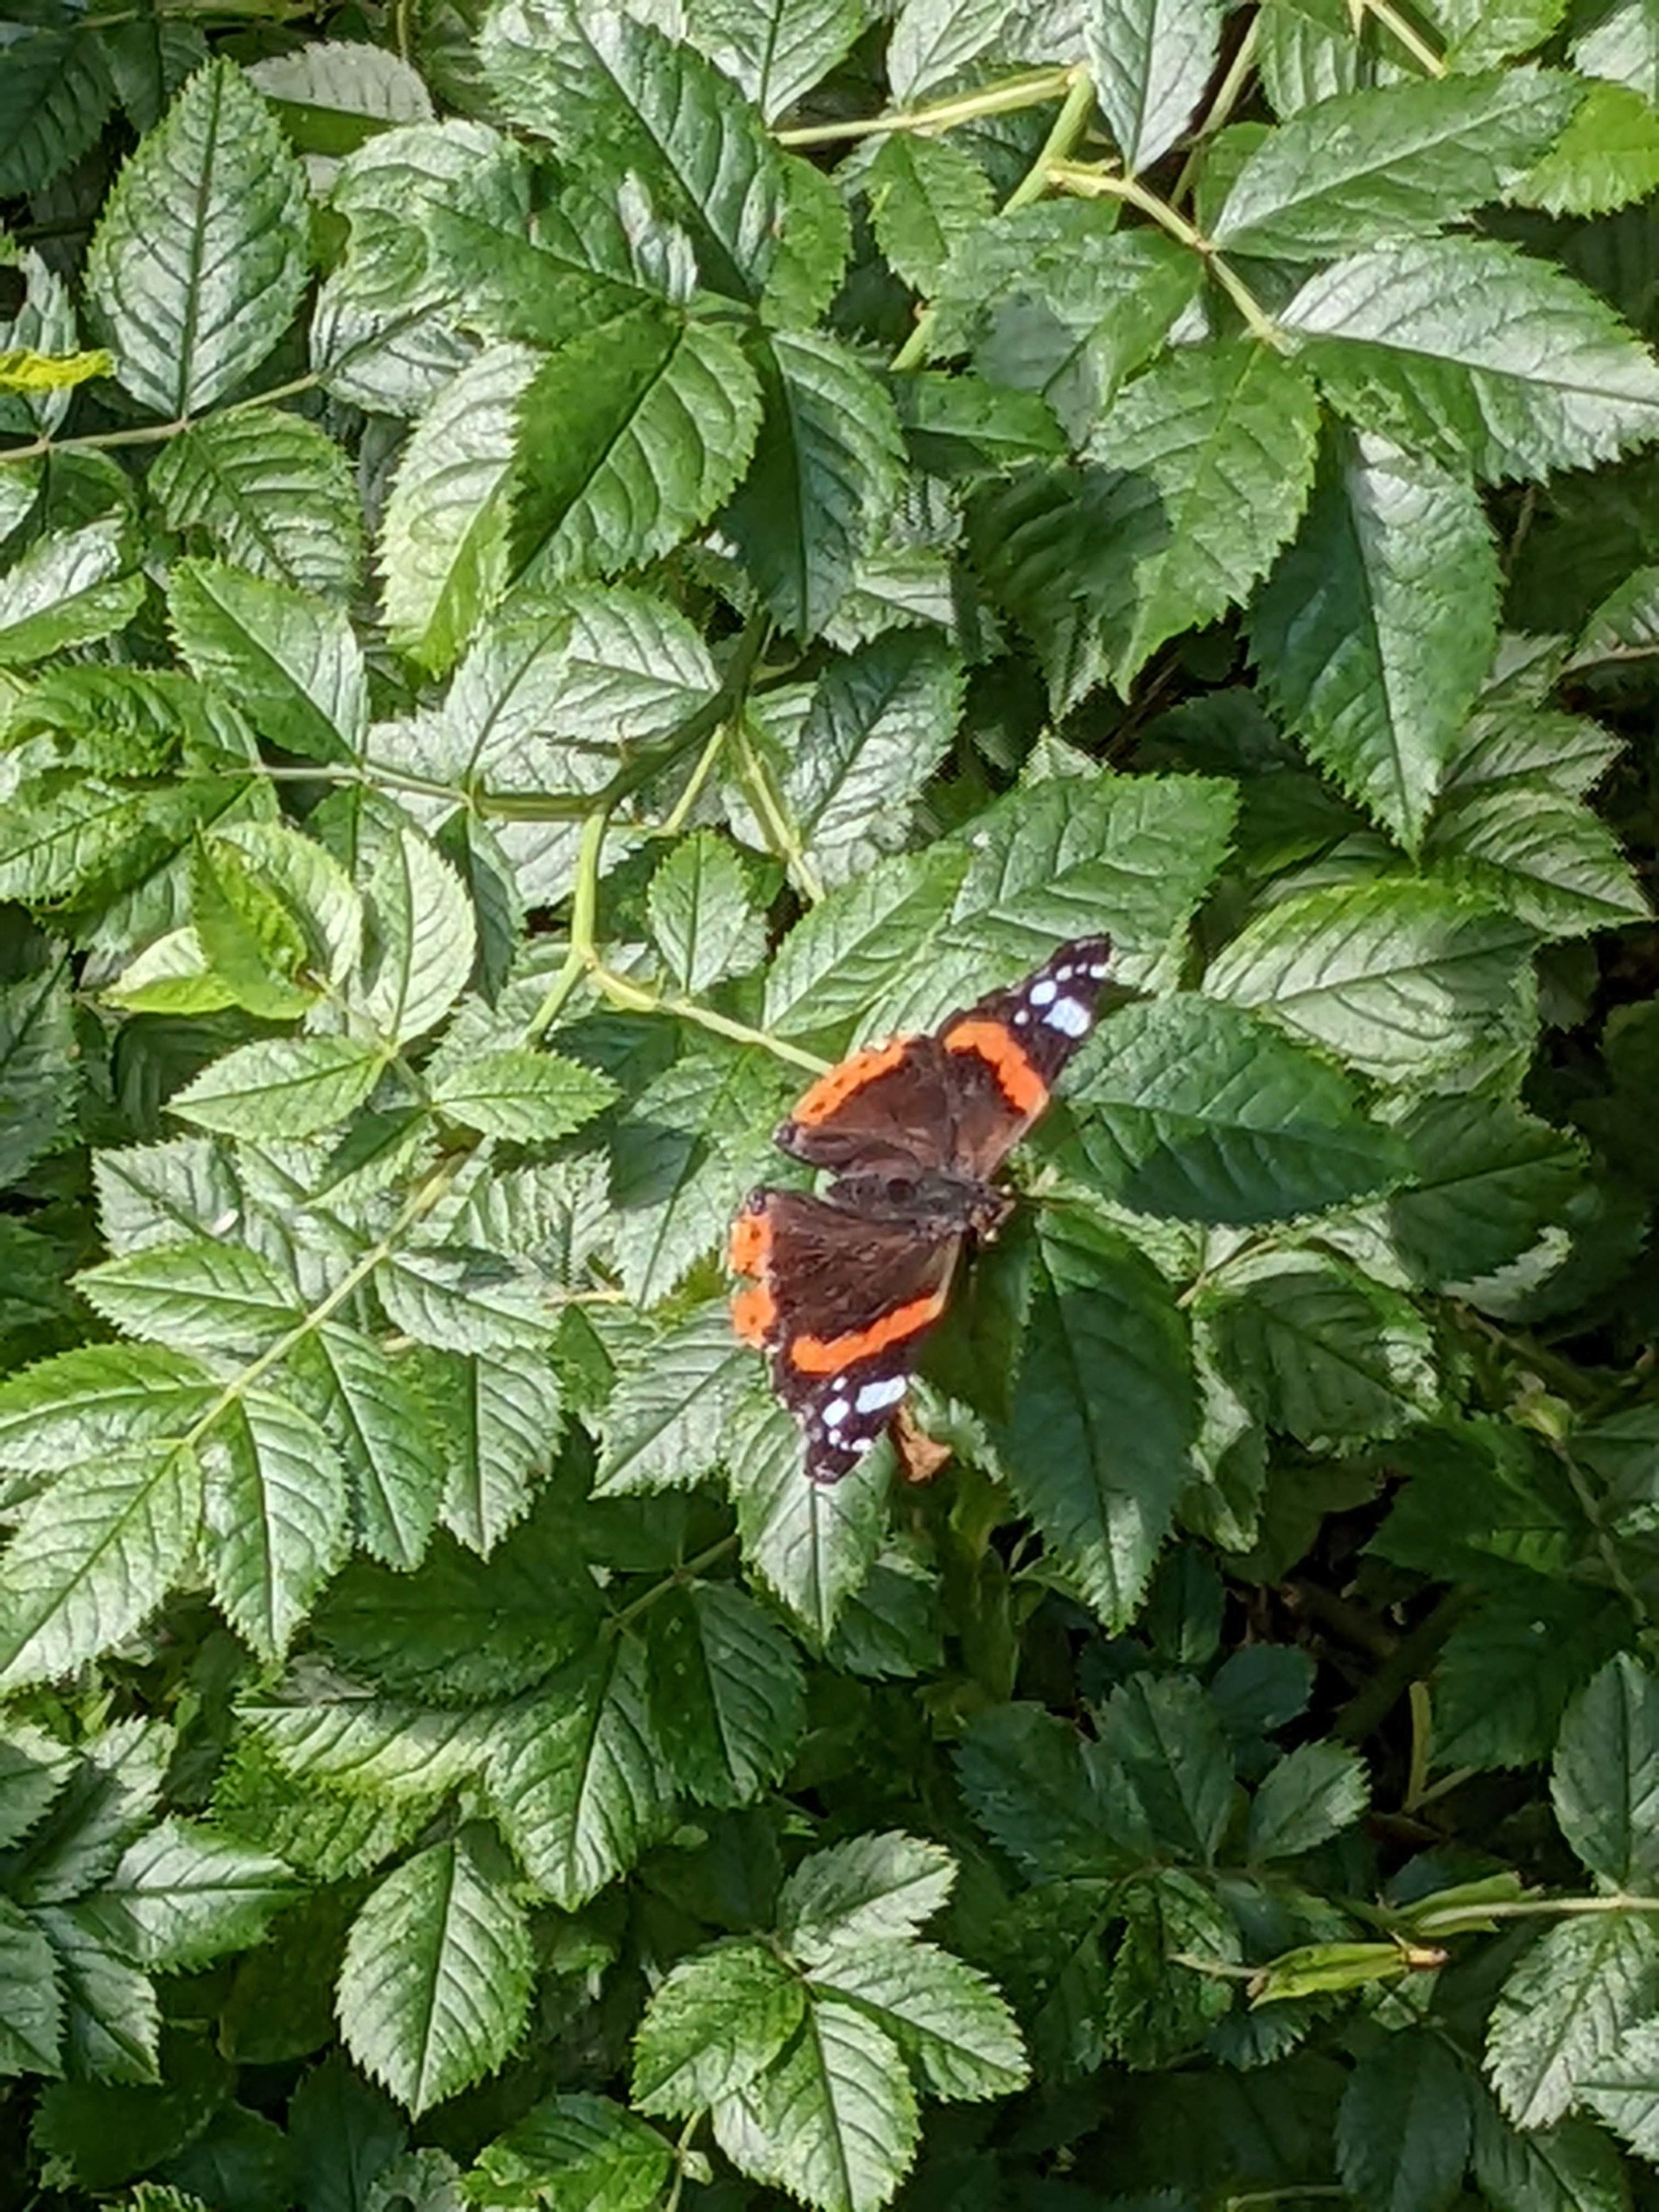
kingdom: Animalia
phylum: Arthropoda
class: Insecta
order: Lepidoptera
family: Nymphalidae
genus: Vanessa
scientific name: Vanessa atalanta
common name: Admiral
